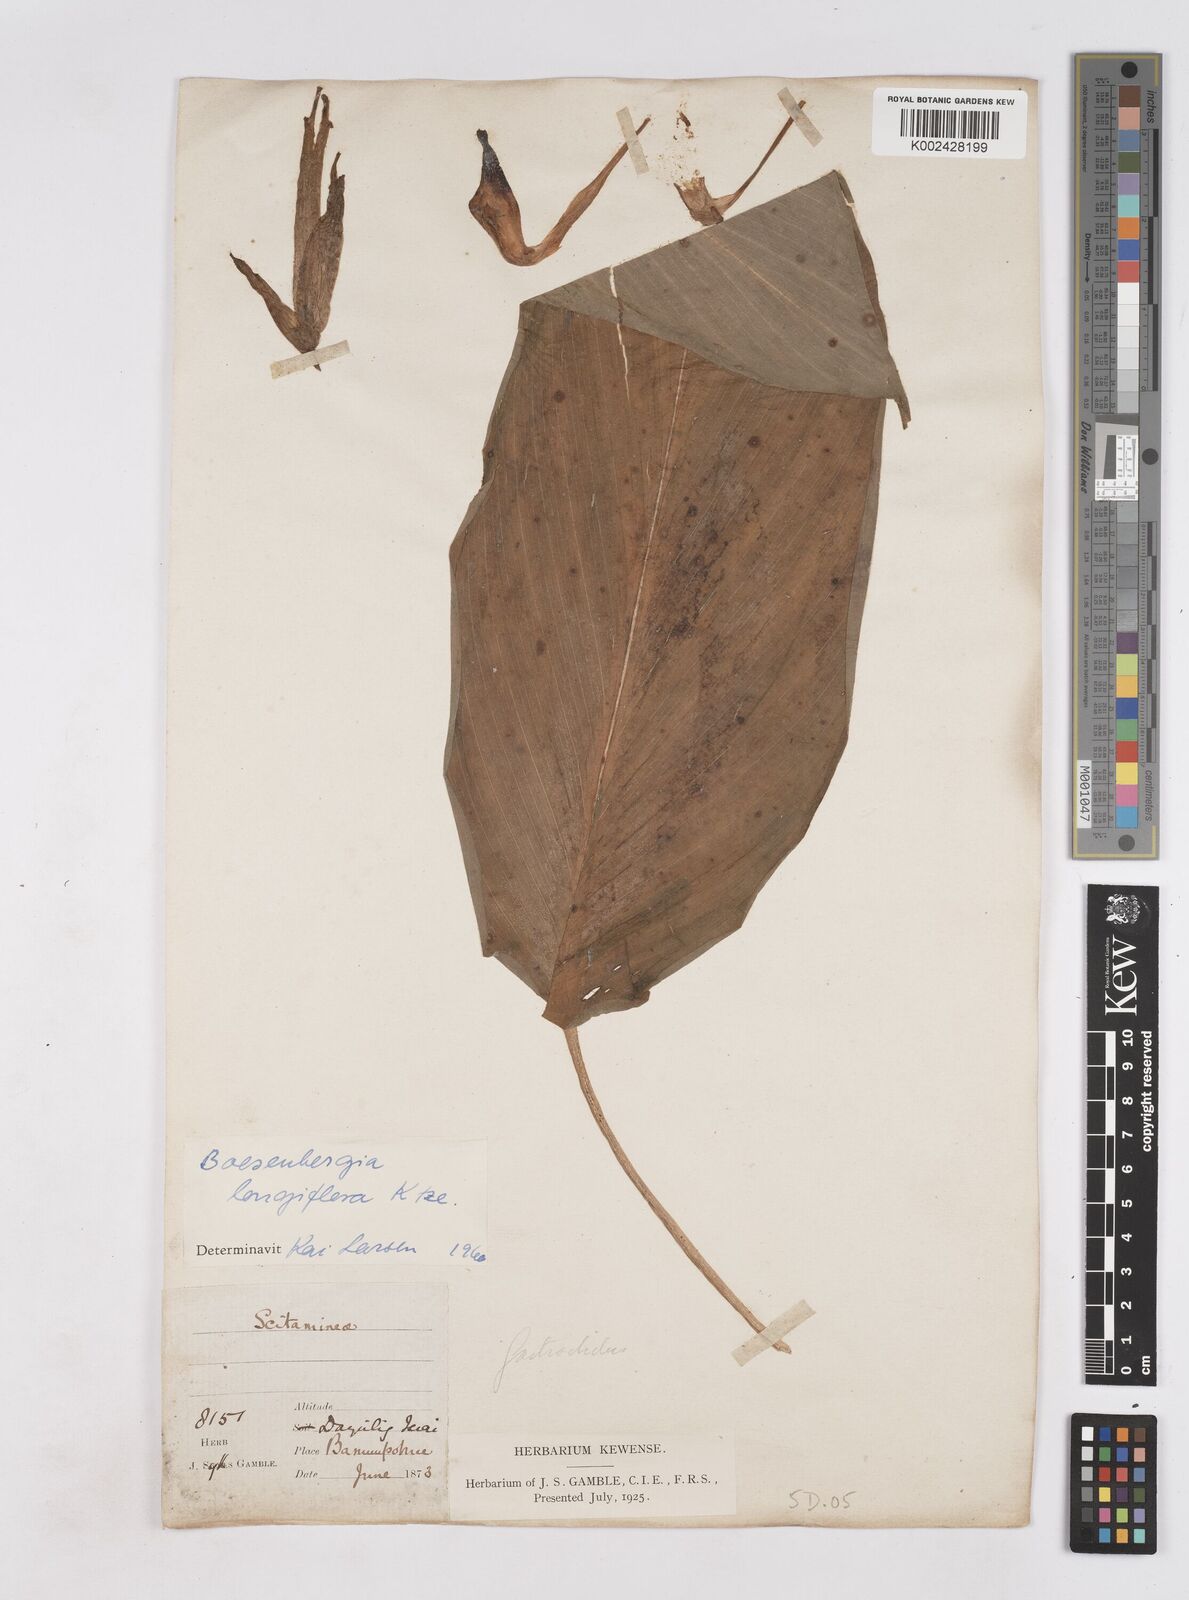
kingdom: Plantae
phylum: Tracheophyta
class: Liliopsida
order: Zingiberales
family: Zingiberaceae
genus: Boesenbergia
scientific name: Boesenbergia longiflora
